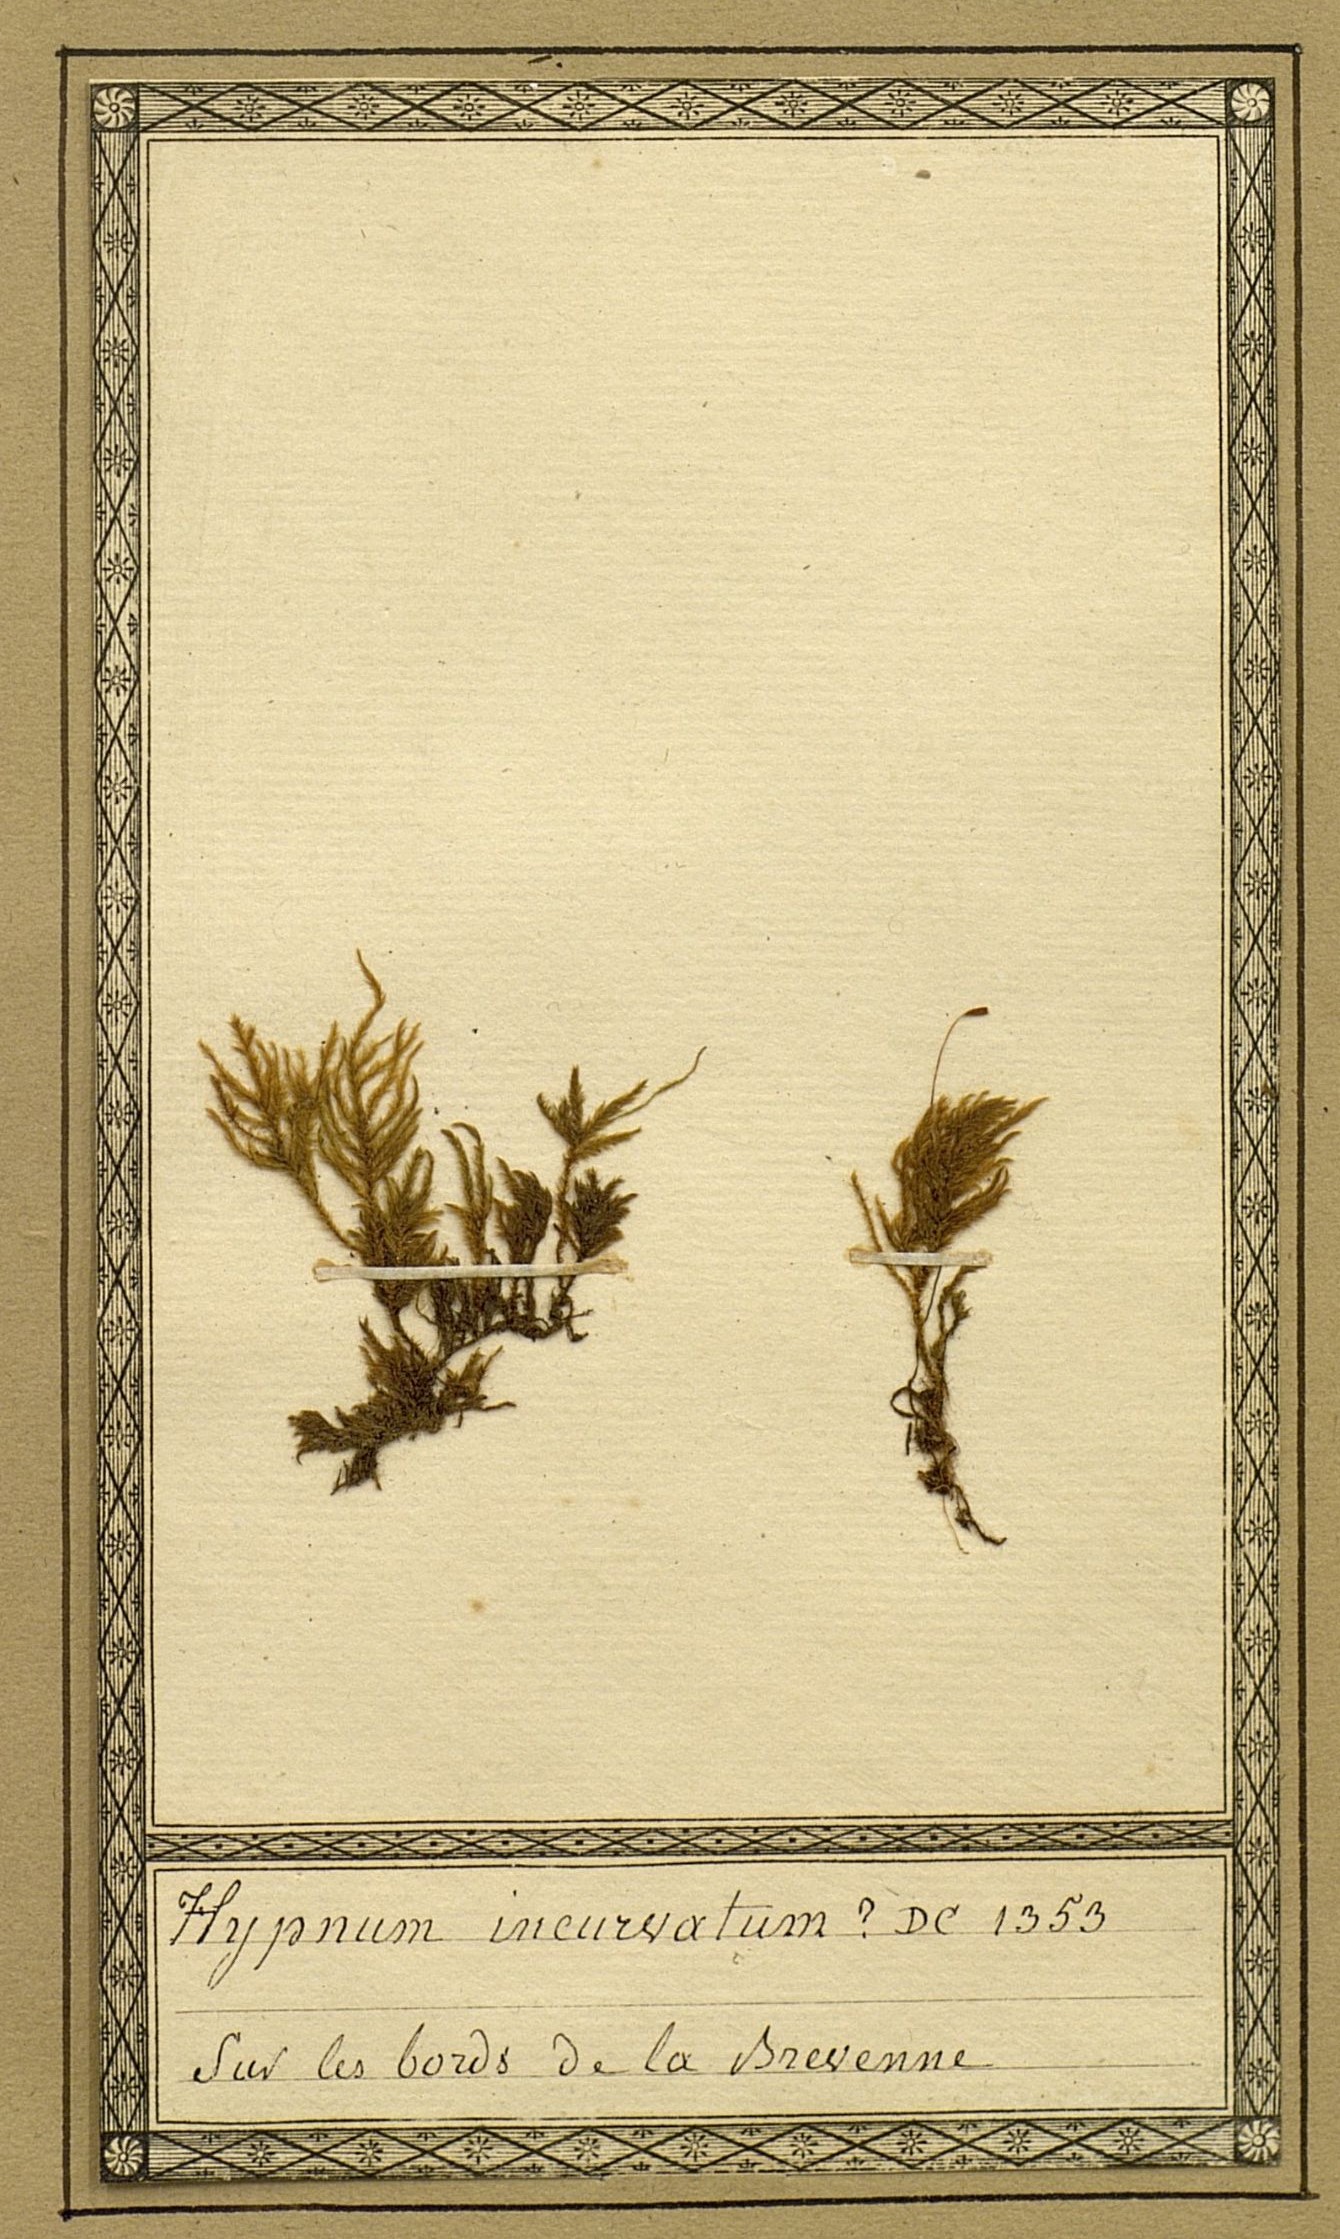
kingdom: Plantae
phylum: Bryophyta
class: Bryopsida
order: Hypnales
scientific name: Hypnales
